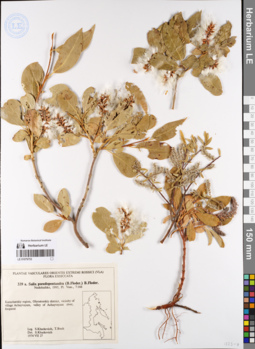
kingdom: Plantae
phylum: Tracheophyta
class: Magnoliopsida
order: Malpighiales
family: Salicaceae
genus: Salix
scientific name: Salix pseudopentandra
